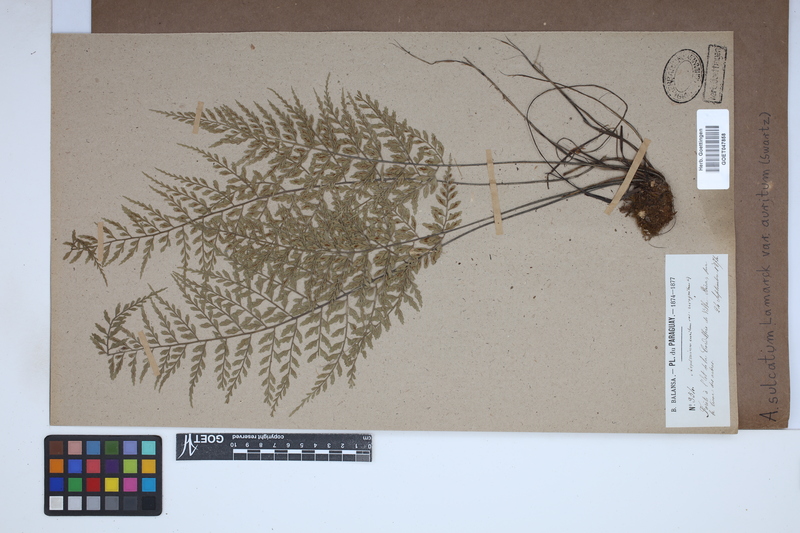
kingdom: Plantae
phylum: Tracheophyta
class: Polypodiopsida
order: Polypodiales
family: Aspleniaceae
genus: Asplenium
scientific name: Asplenium auritum
